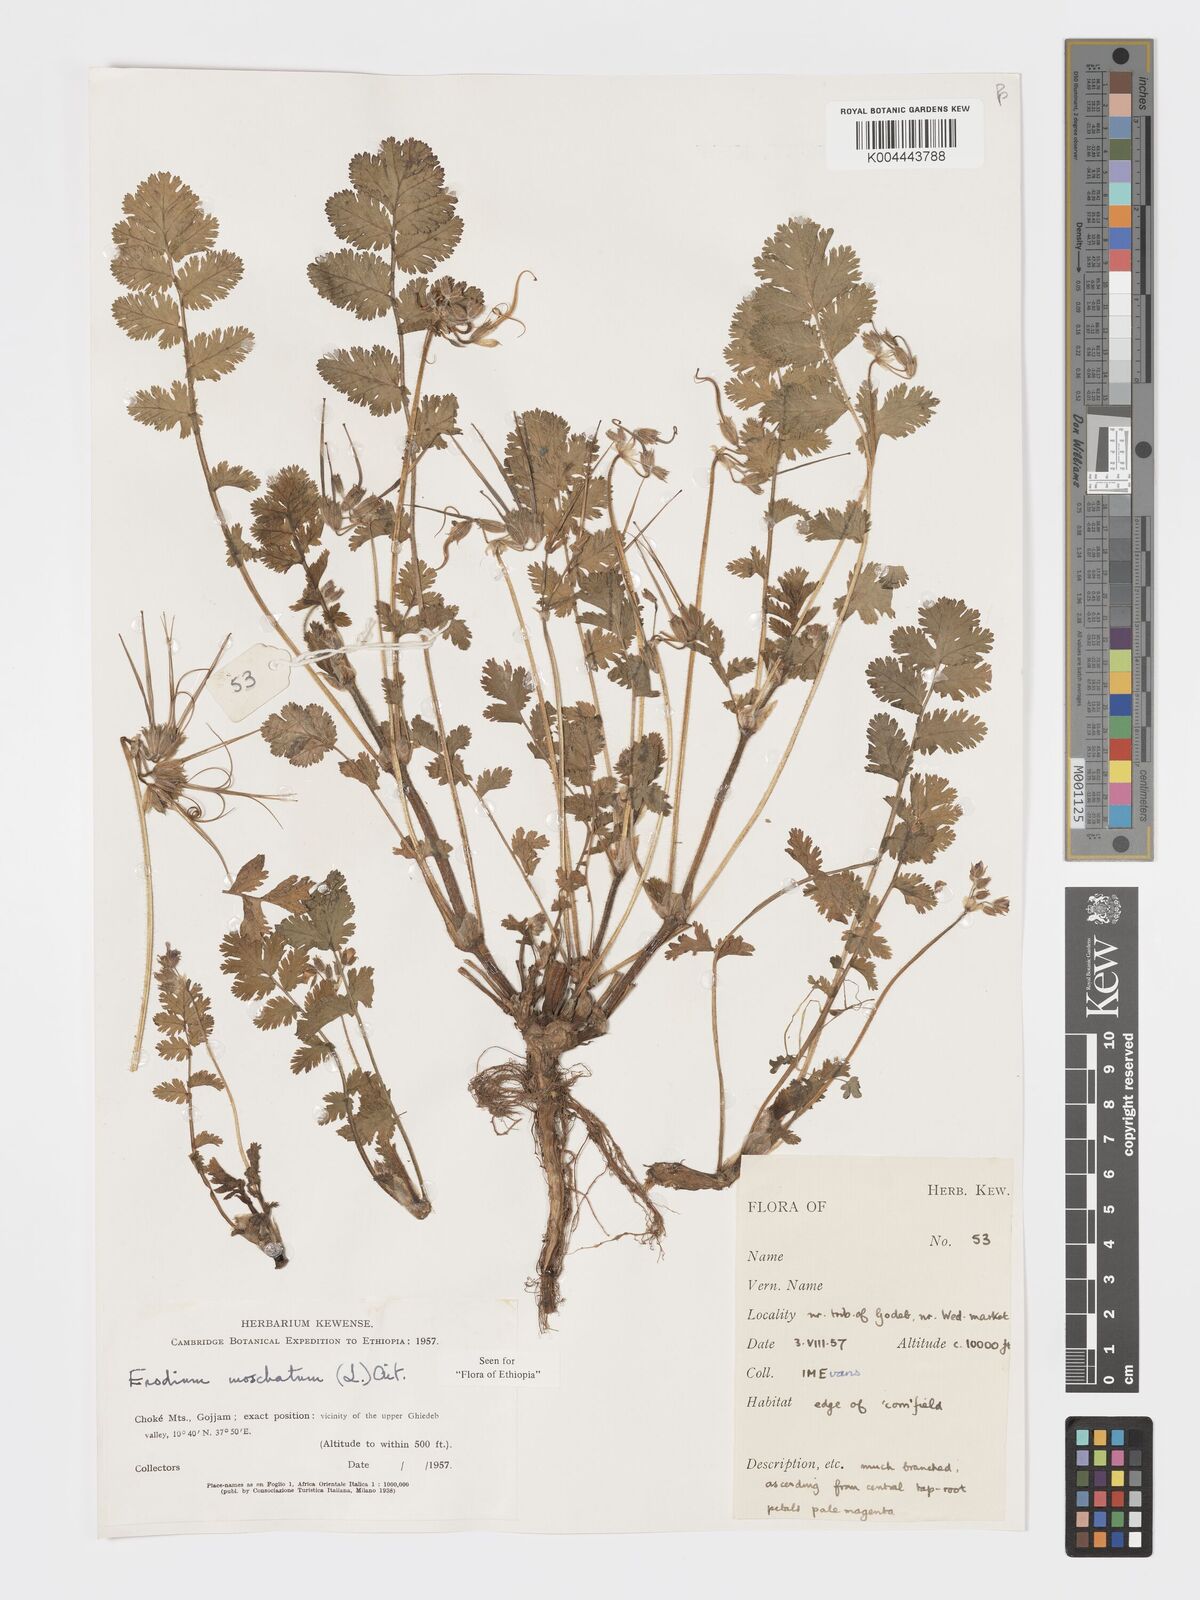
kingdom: Plantae
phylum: Tracheophyta
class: Magnoliopsida
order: Geraniales
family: Geraniaceae
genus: Erodium
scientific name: Erodium moschatum
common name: Musk stork's-bill
